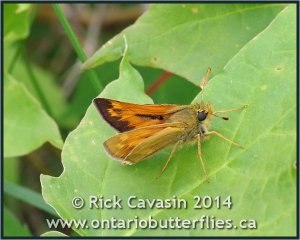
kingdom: Animalia
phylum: Arthropoda
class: Insecta
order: Lepidoptera
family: Hesperiidae
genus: Hesperia
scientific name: Hesperia sassacus
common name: Sassacus Skipper
